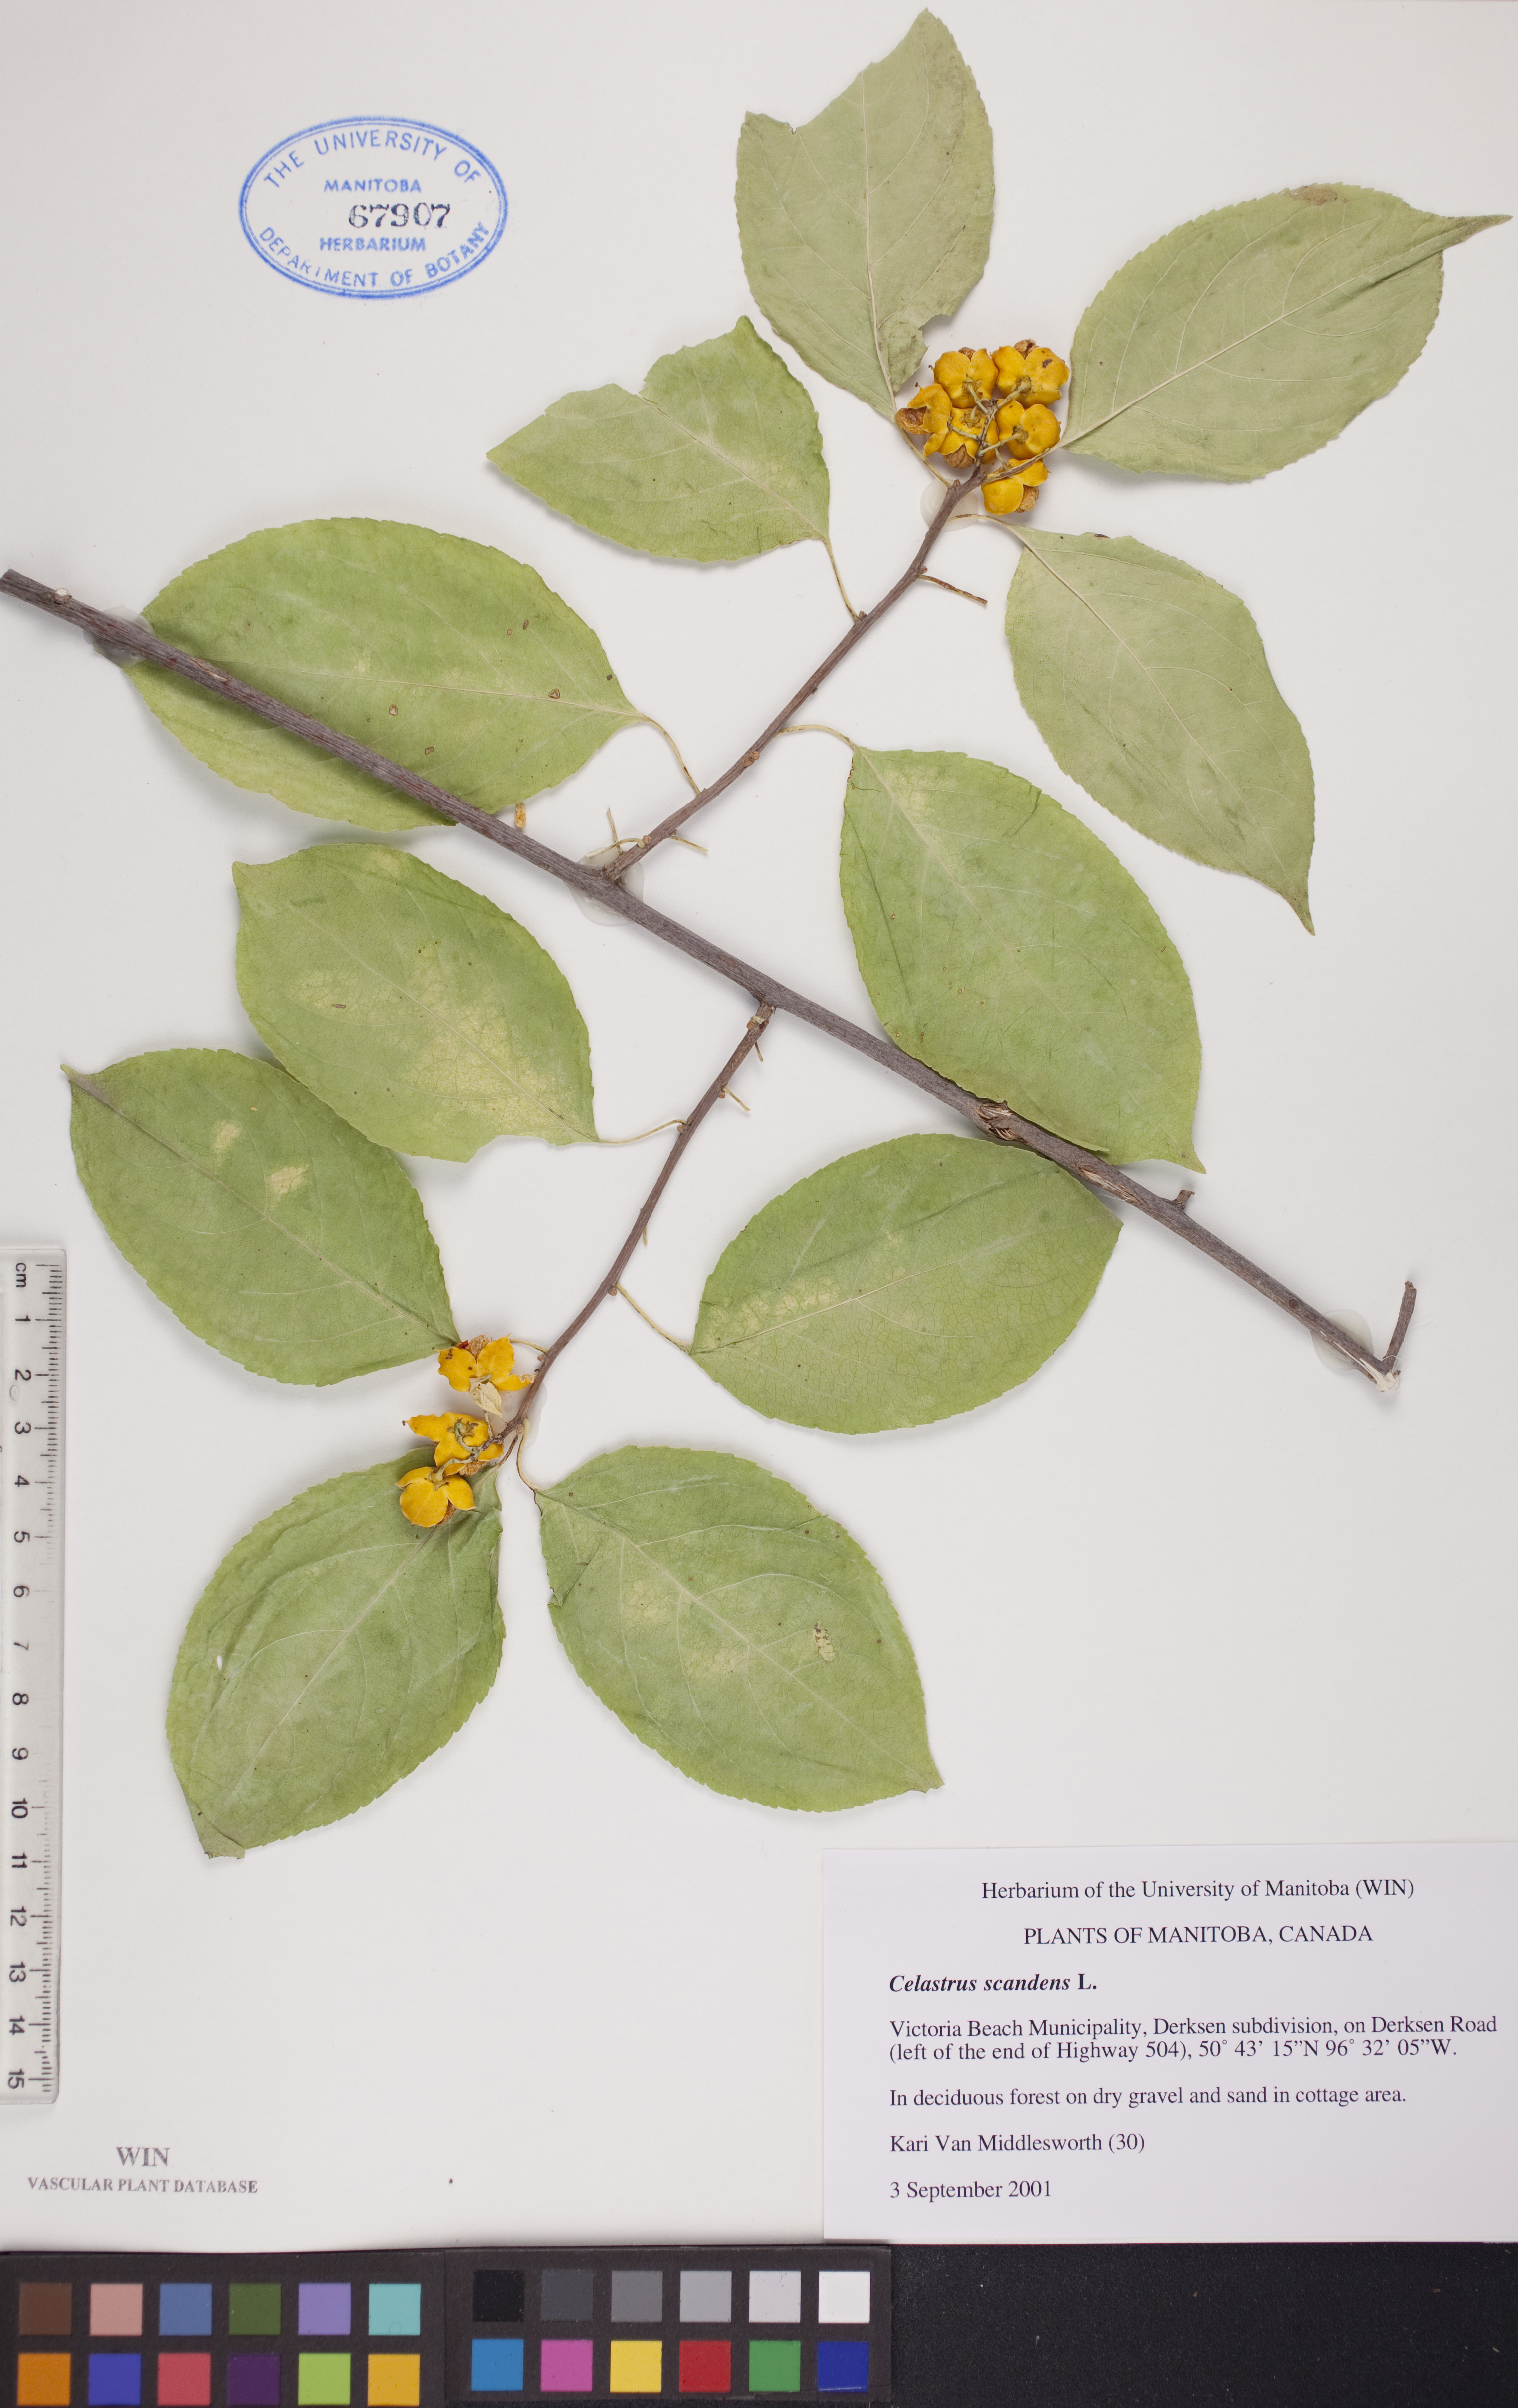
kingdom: Plantae
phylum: Tracheophyta
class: Magnoliopsida
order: Celastrales
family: Celastraceae
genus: Celastrus
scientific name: Celastrus scandens
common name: American bittersweet
